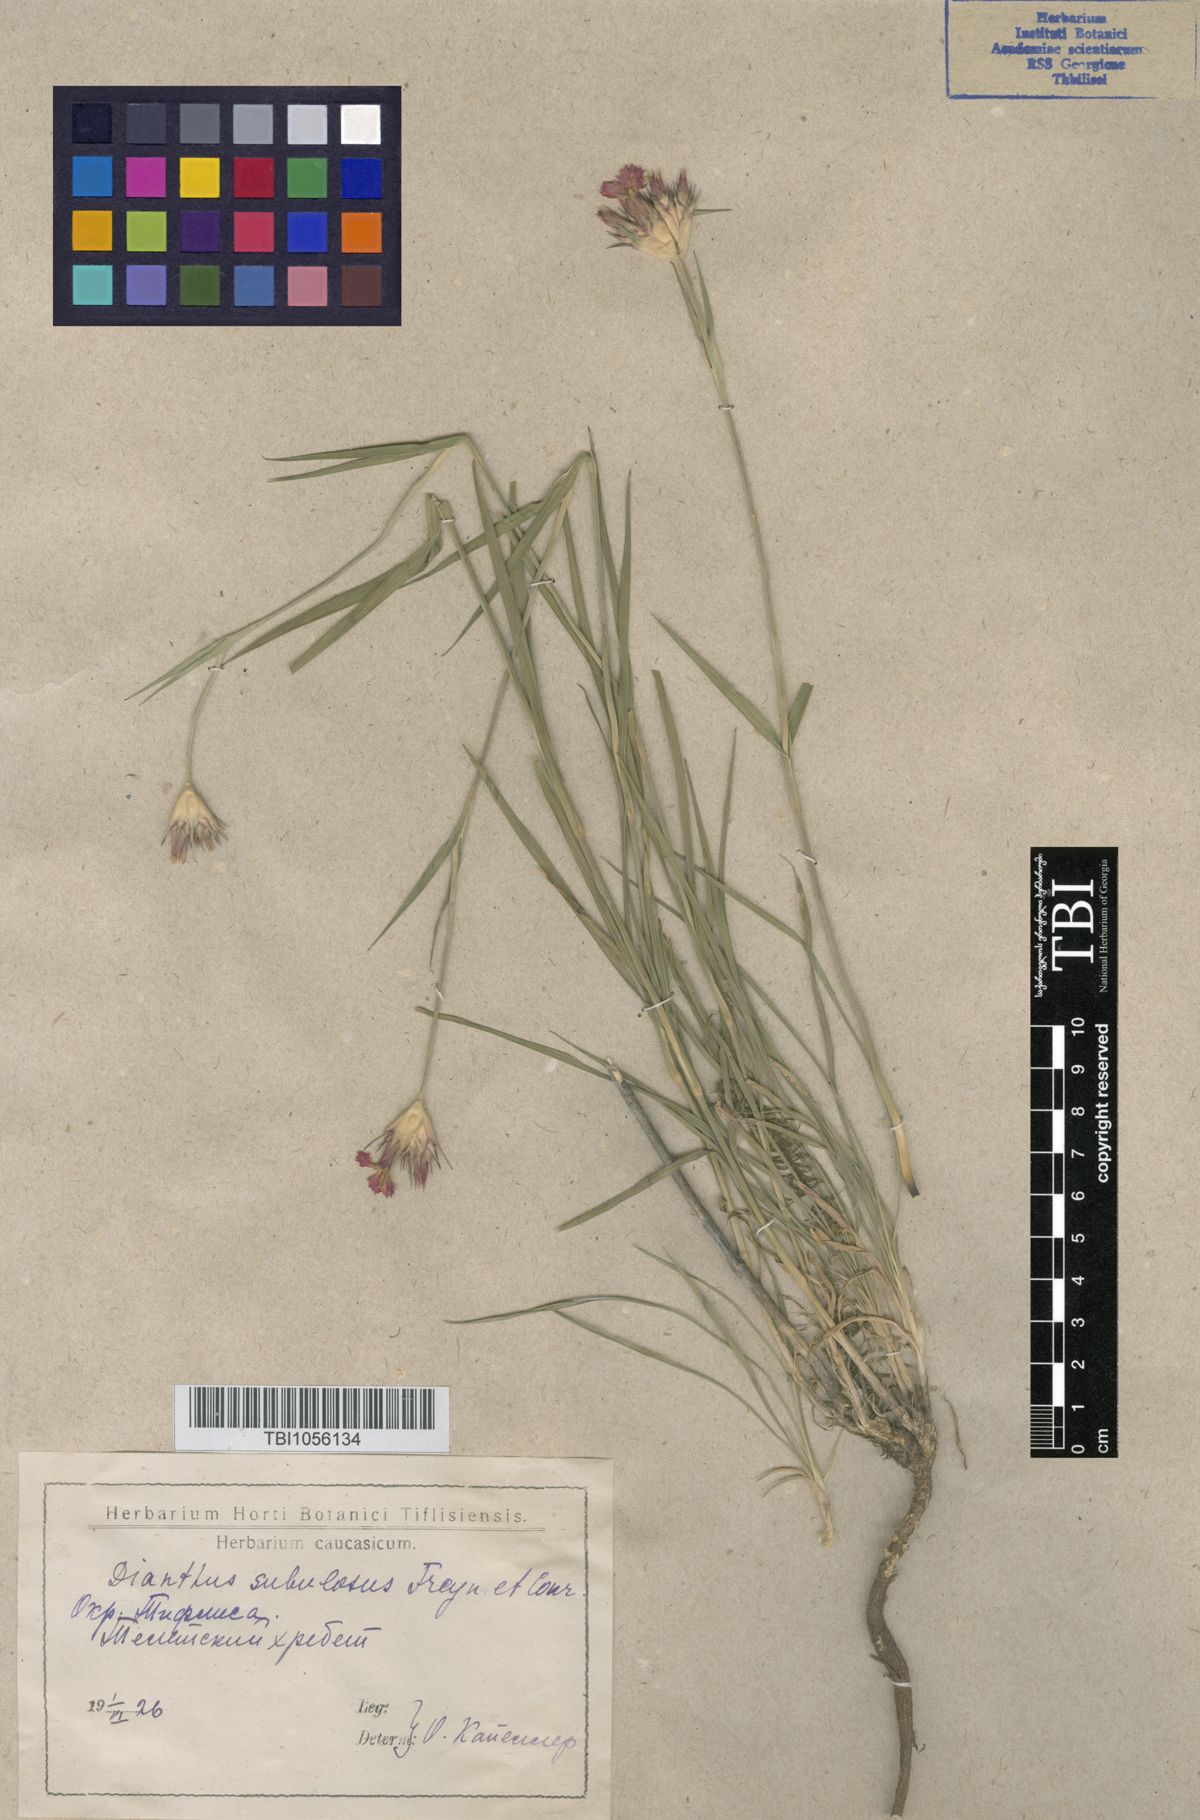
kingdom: Plantae
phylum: Tracheophyta
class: Magnoliopsida
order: Caryophyllales
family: Caryophyllaceae
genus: Dianthus
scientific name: Dianthus subulosus
